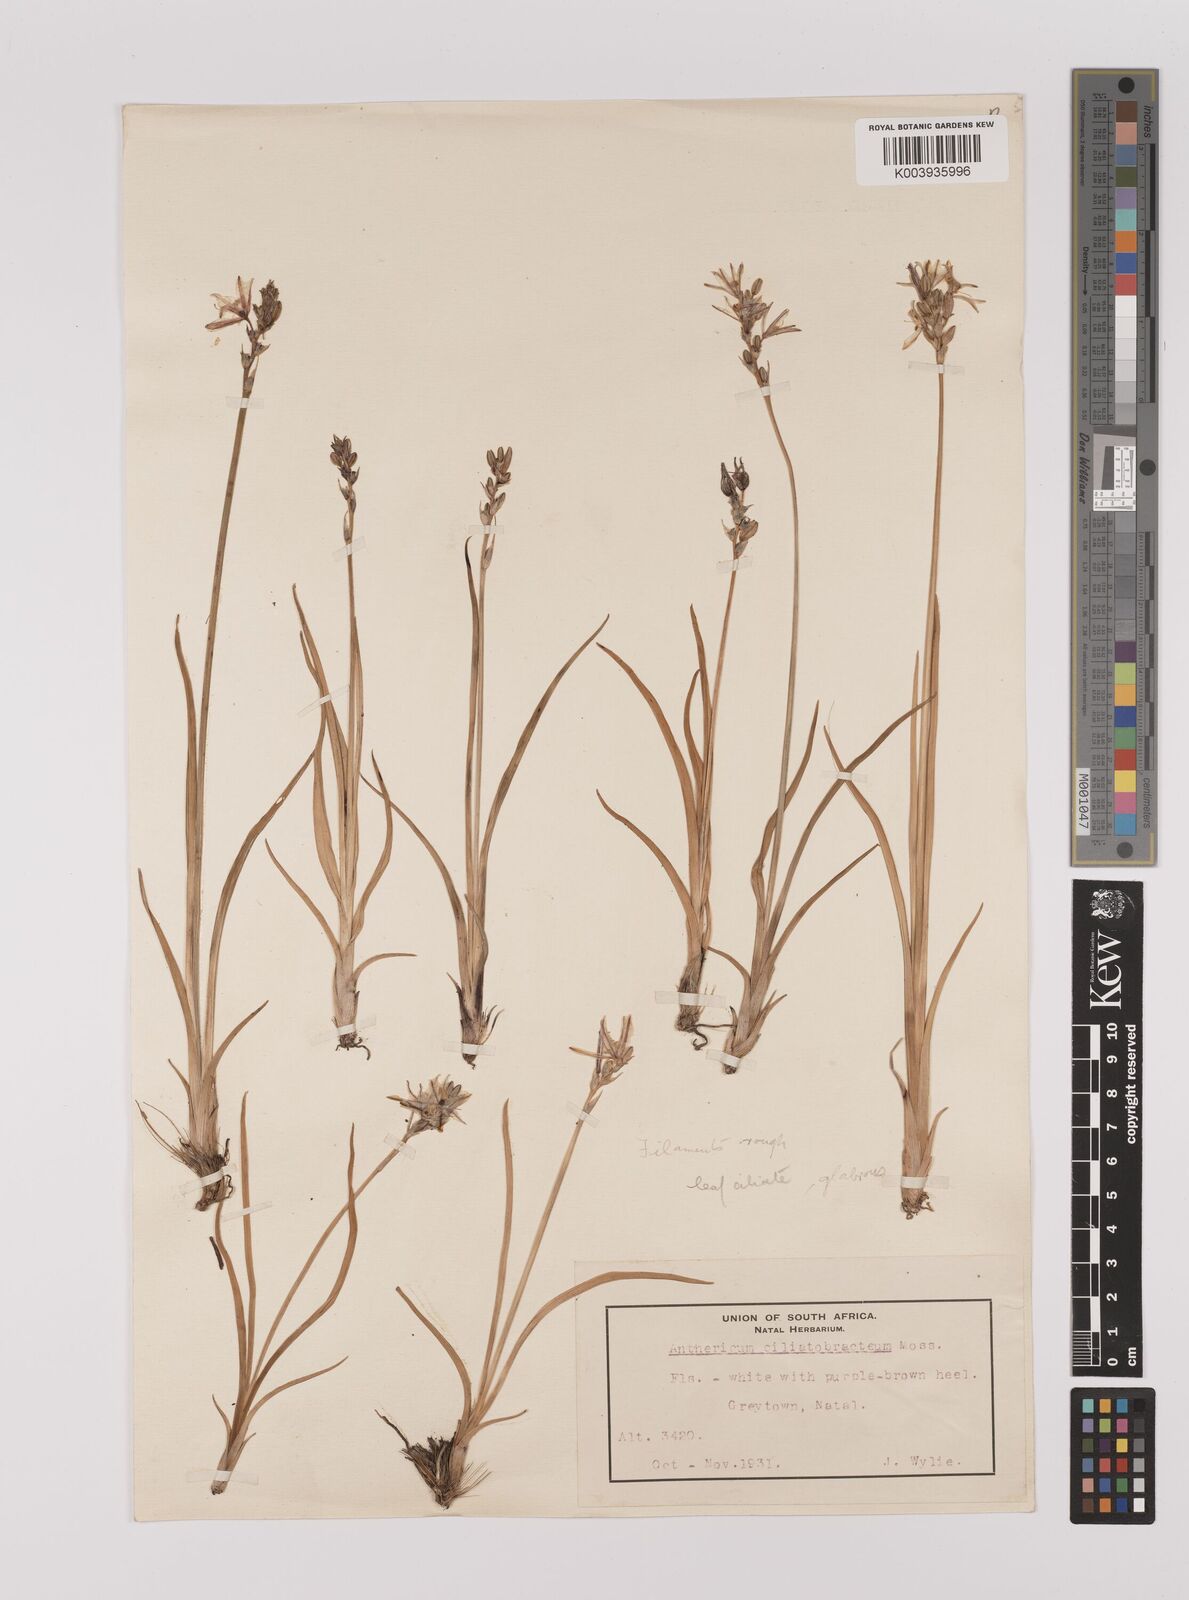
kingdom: Plantae
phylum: Tracheophyta
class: Liliopsida
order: Asparagales
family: Asparagaceae
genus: Chlorophytum
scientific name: Chlorophytum cooperi
